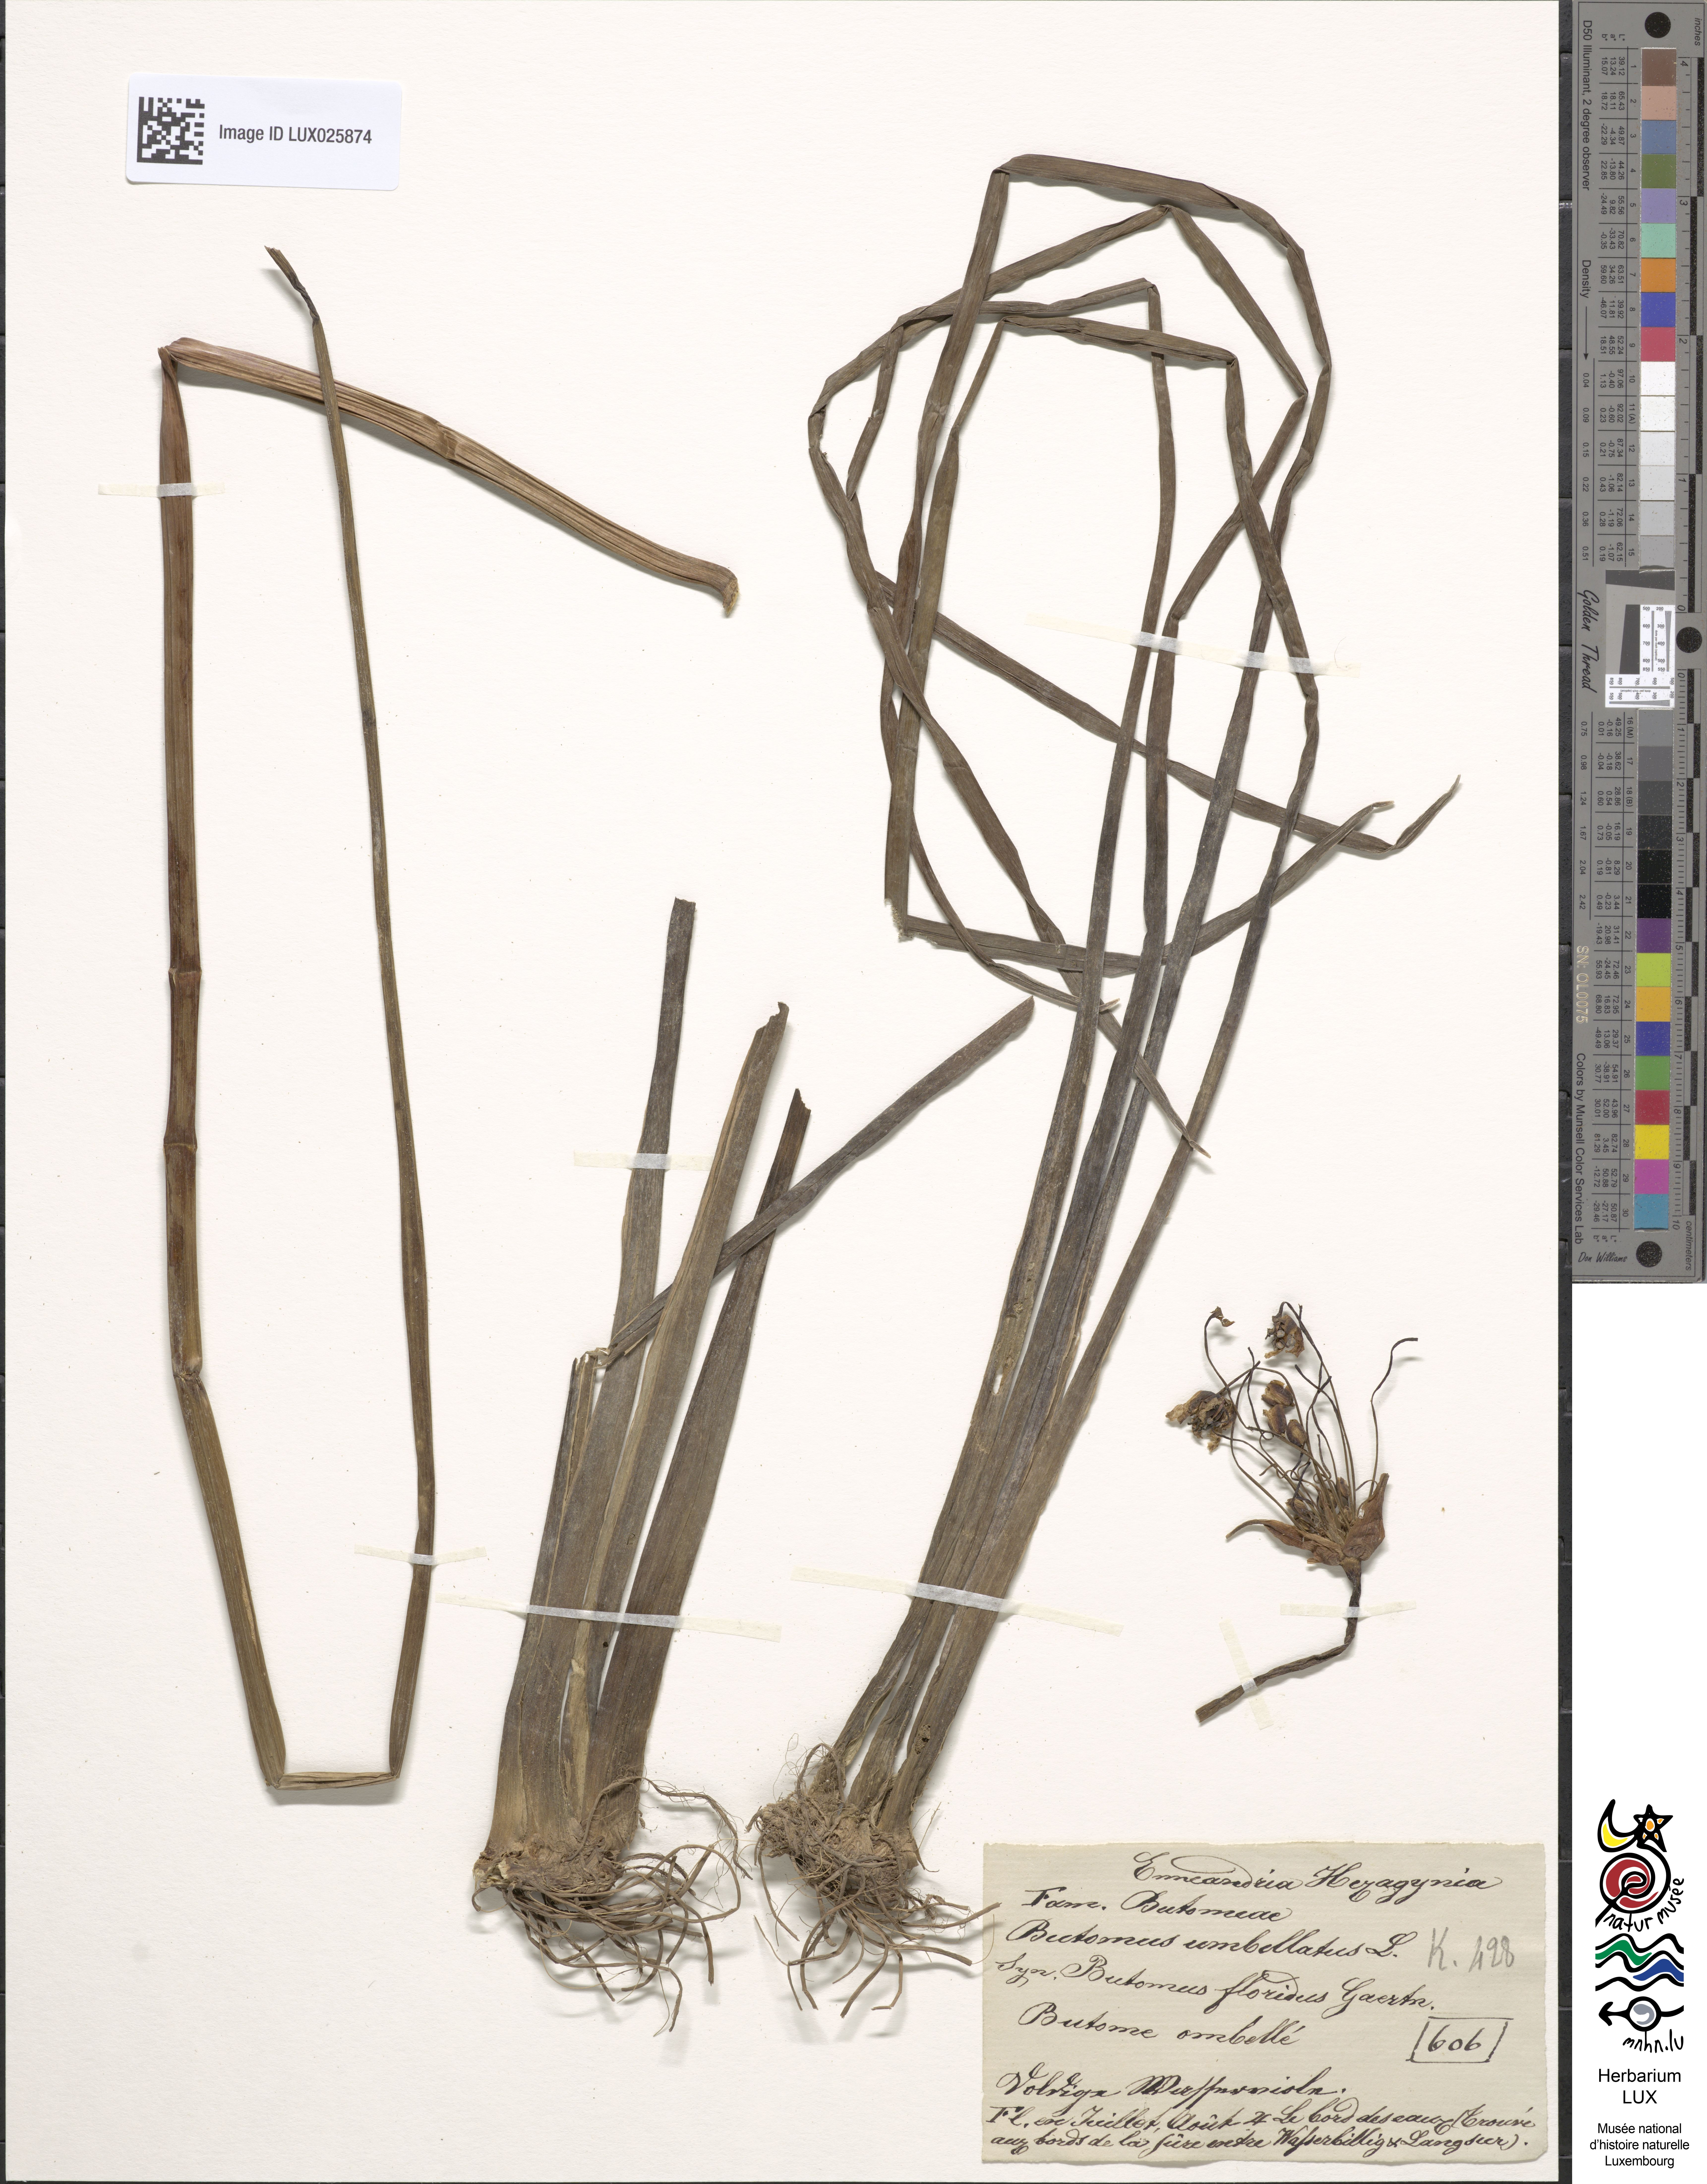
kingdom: Plantae
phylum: Tracheophyta
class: Liliopsida
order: Alismatales
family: Butomaceae
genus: Butomus
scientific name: Butomus umbellatus
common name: Flowering-rush
